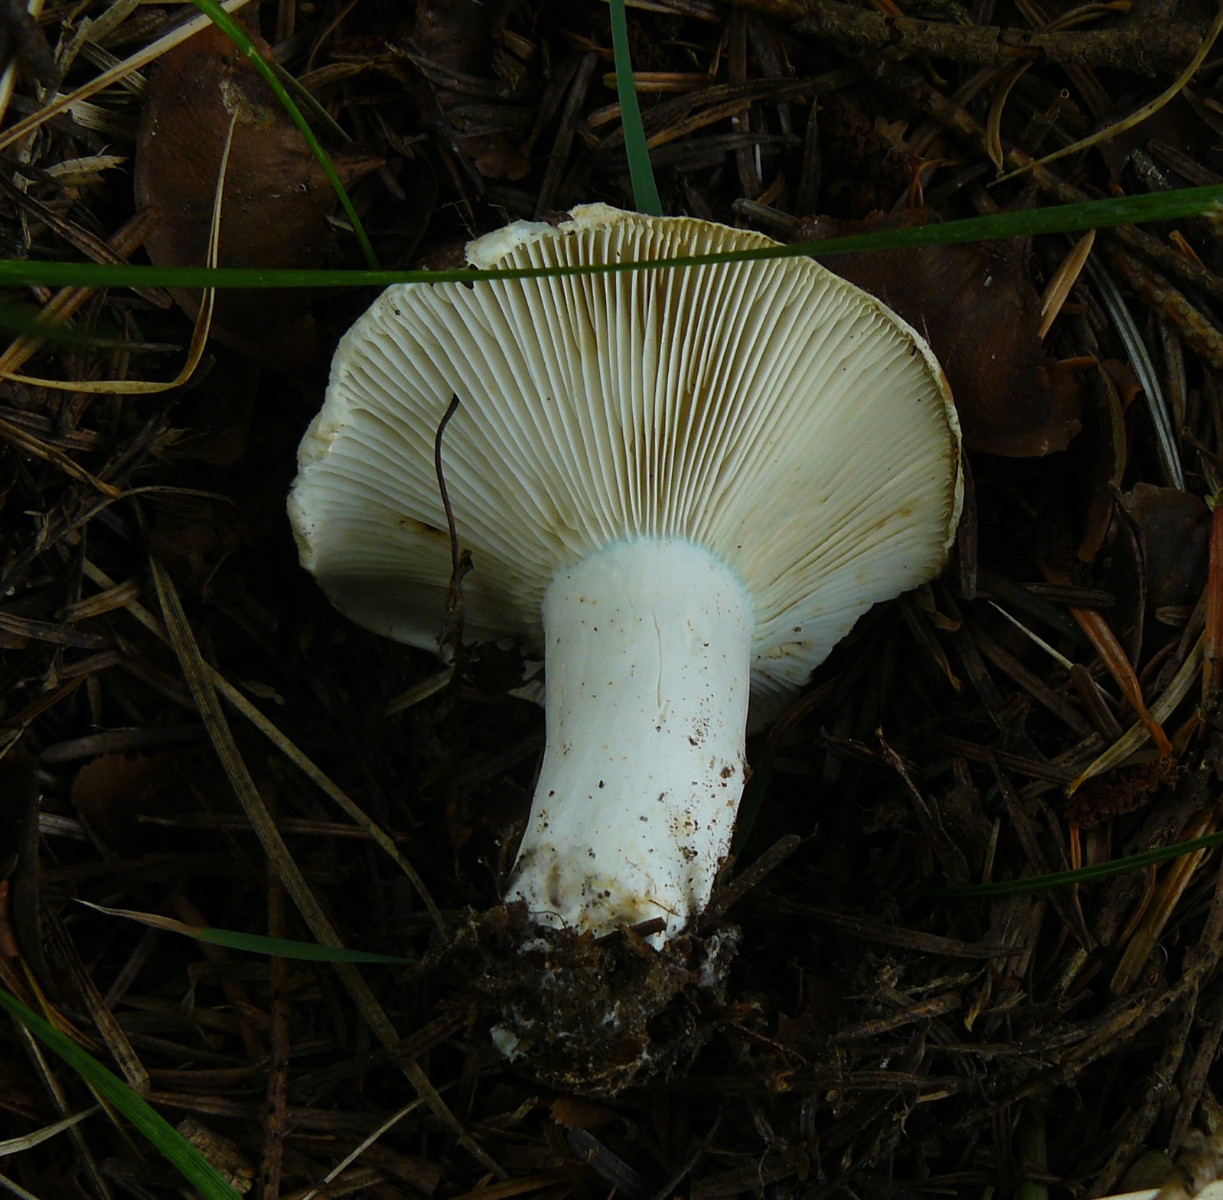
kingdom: Fungi
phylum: Basidiomycota
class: Agaricomycetes
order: Russulales
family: Russulaceae
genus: Russula
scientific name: Russula chloroides
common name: grønhalset tragt-skørhat
